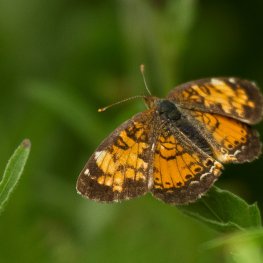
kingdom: Animalia
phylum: Arthropoda
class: Insecta
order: Lepidoptera
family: Nymphalidae
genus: Phyciodes
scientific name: Phyciodes tharos
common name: Northern Crescent
